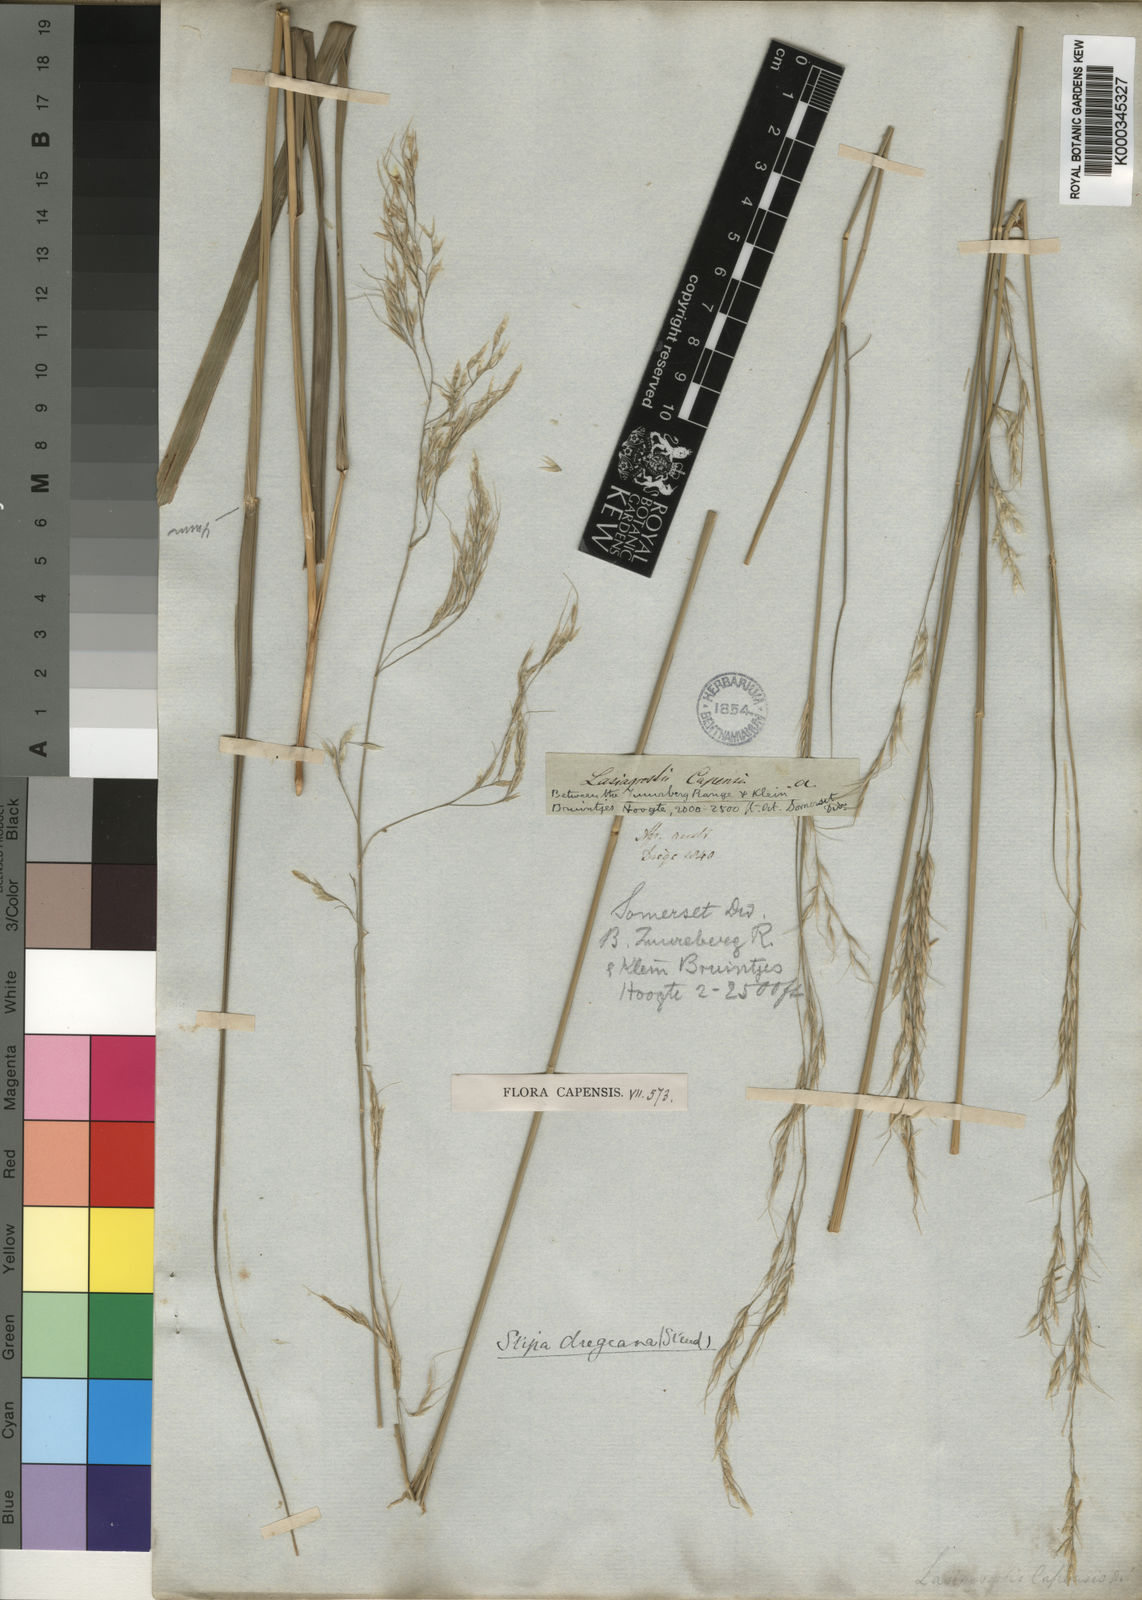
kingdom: Plantae
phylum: Tracheophyta
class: Liliopsida
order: Poales
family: Poaceae
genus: Stipa
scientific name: Stipa dregeana
